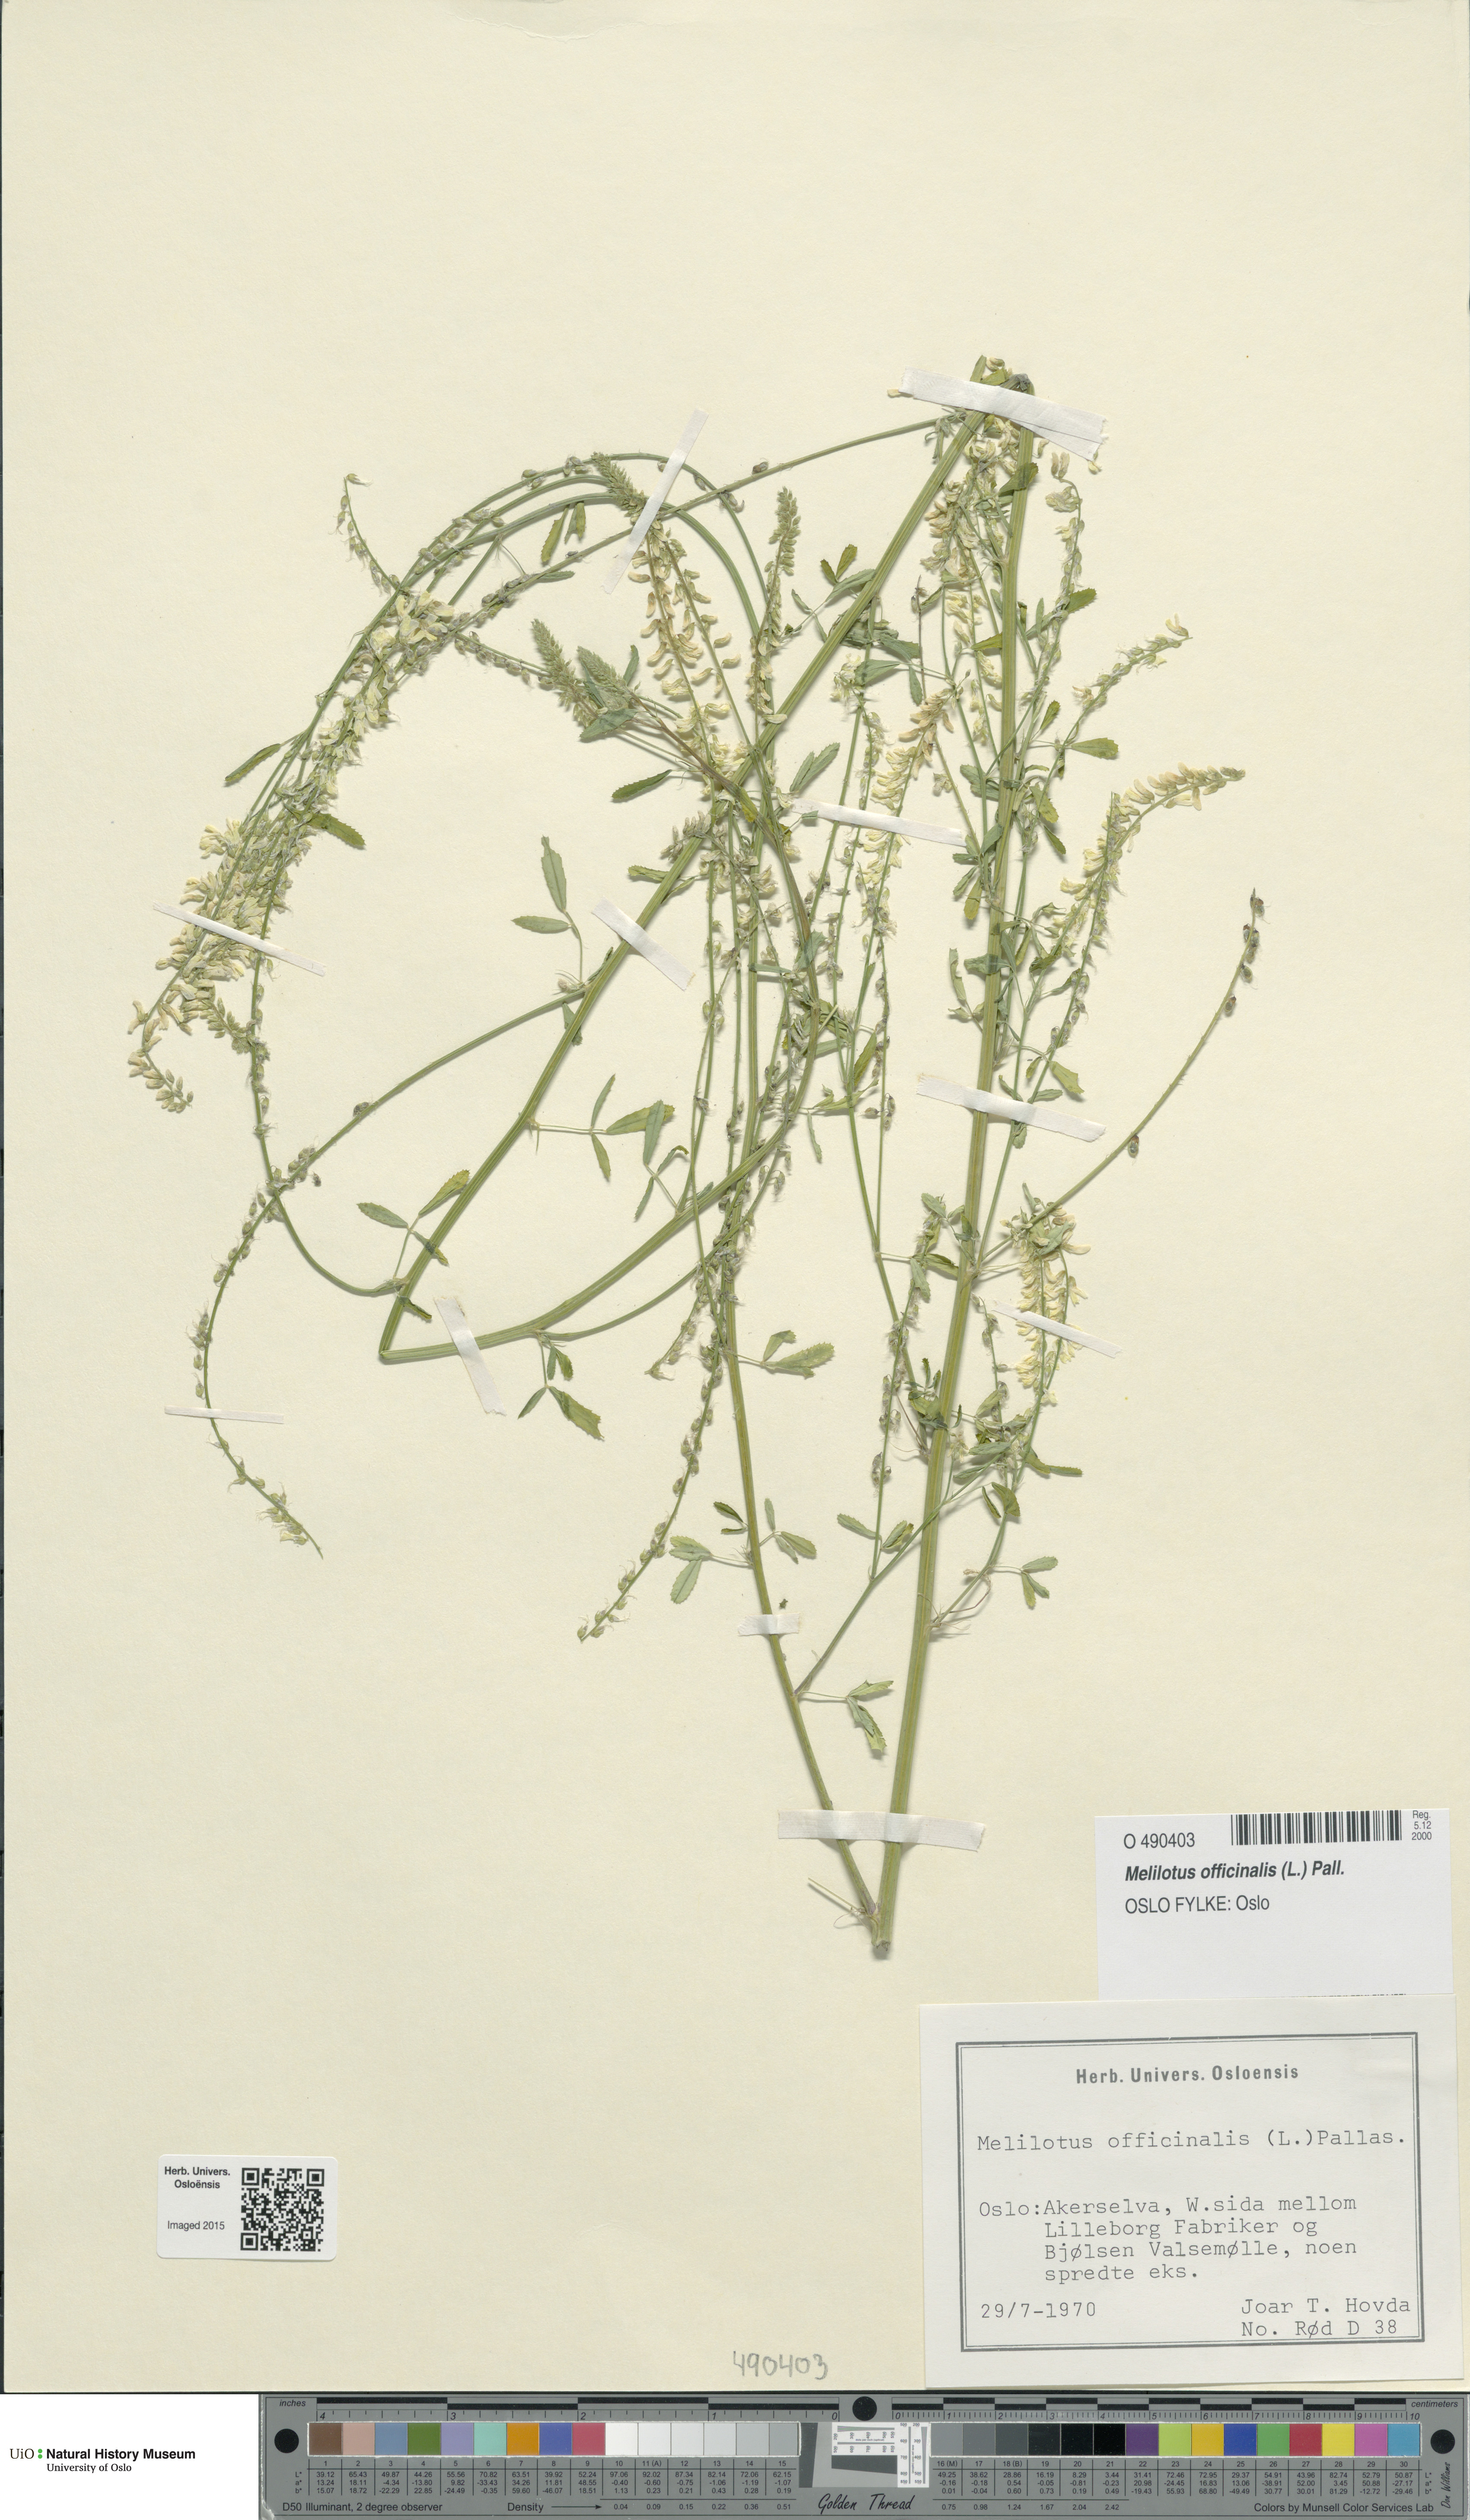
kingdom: Plantae
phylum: Tracheophyta
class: Magnoliopsida
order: Fabales
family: Fabaceae
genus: Melilotus
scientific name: Melilotus officinalis
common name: Sweetclover
